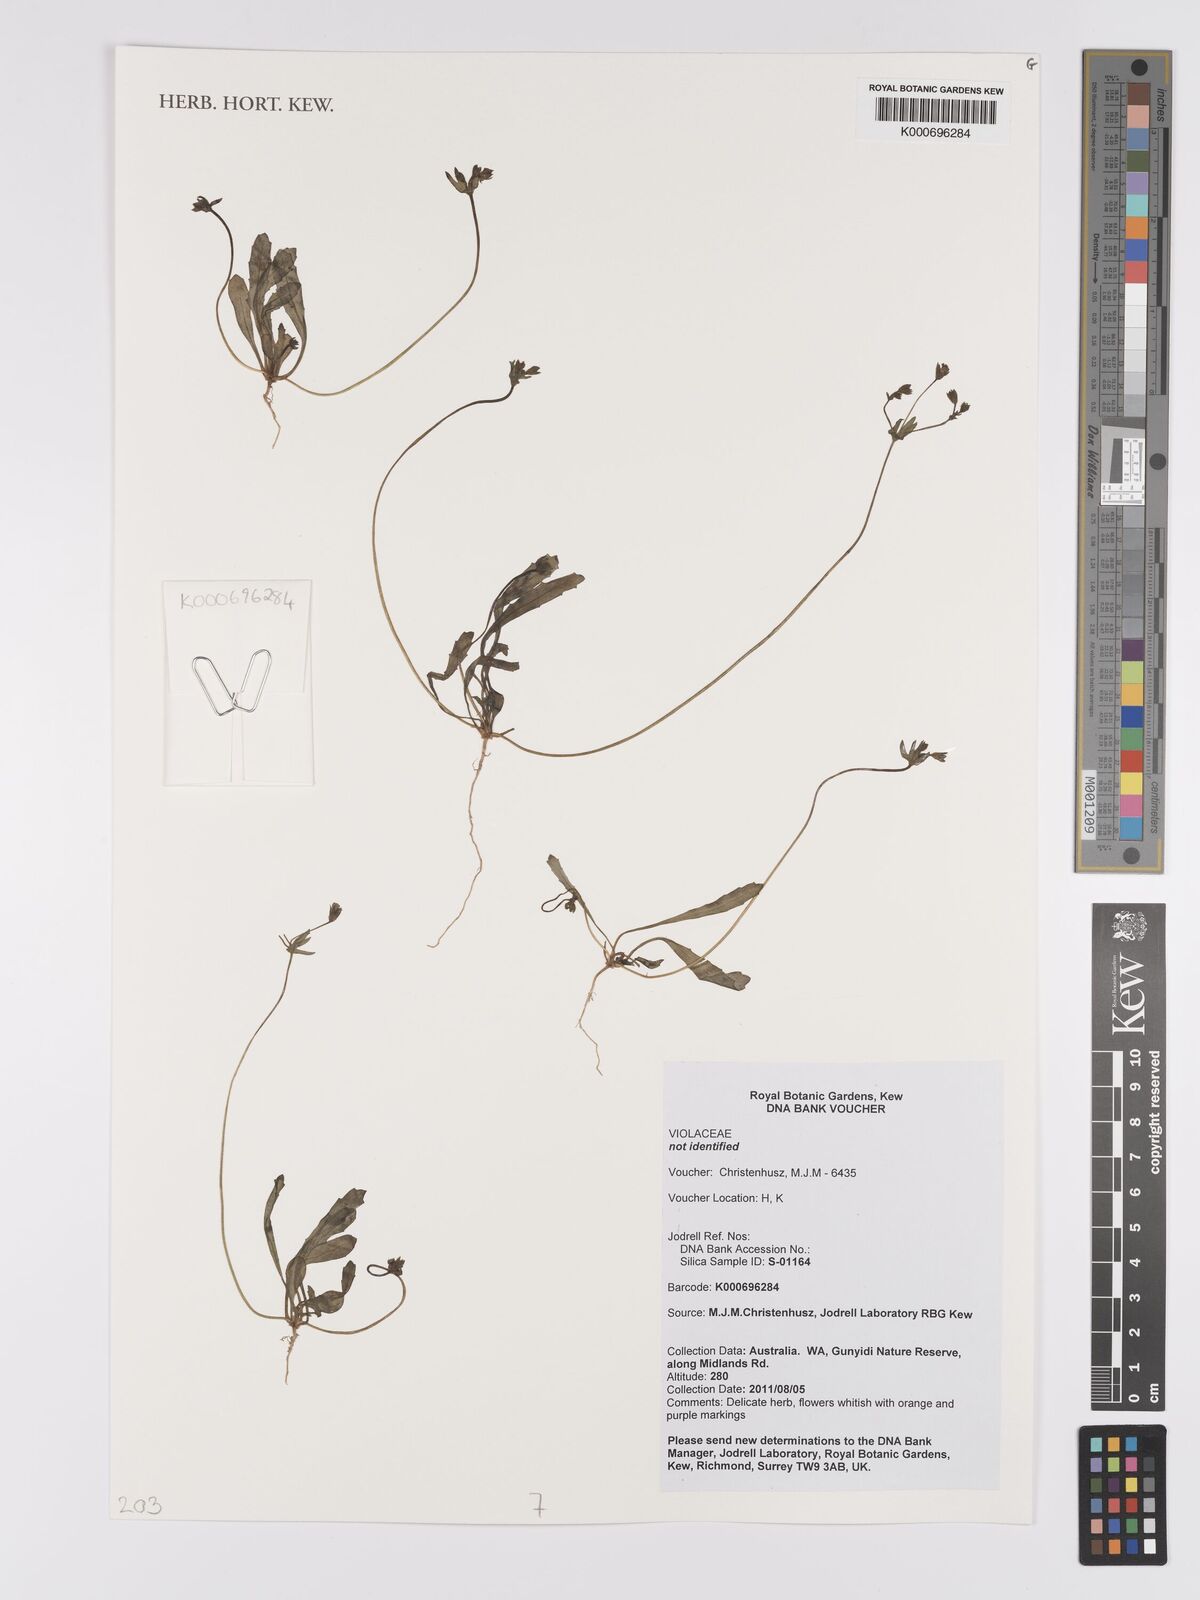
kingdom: Plantae
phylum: Tracheophyta
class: Magnoliopsida
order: Malpighiales
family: Violaceae
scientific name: Violaceae
